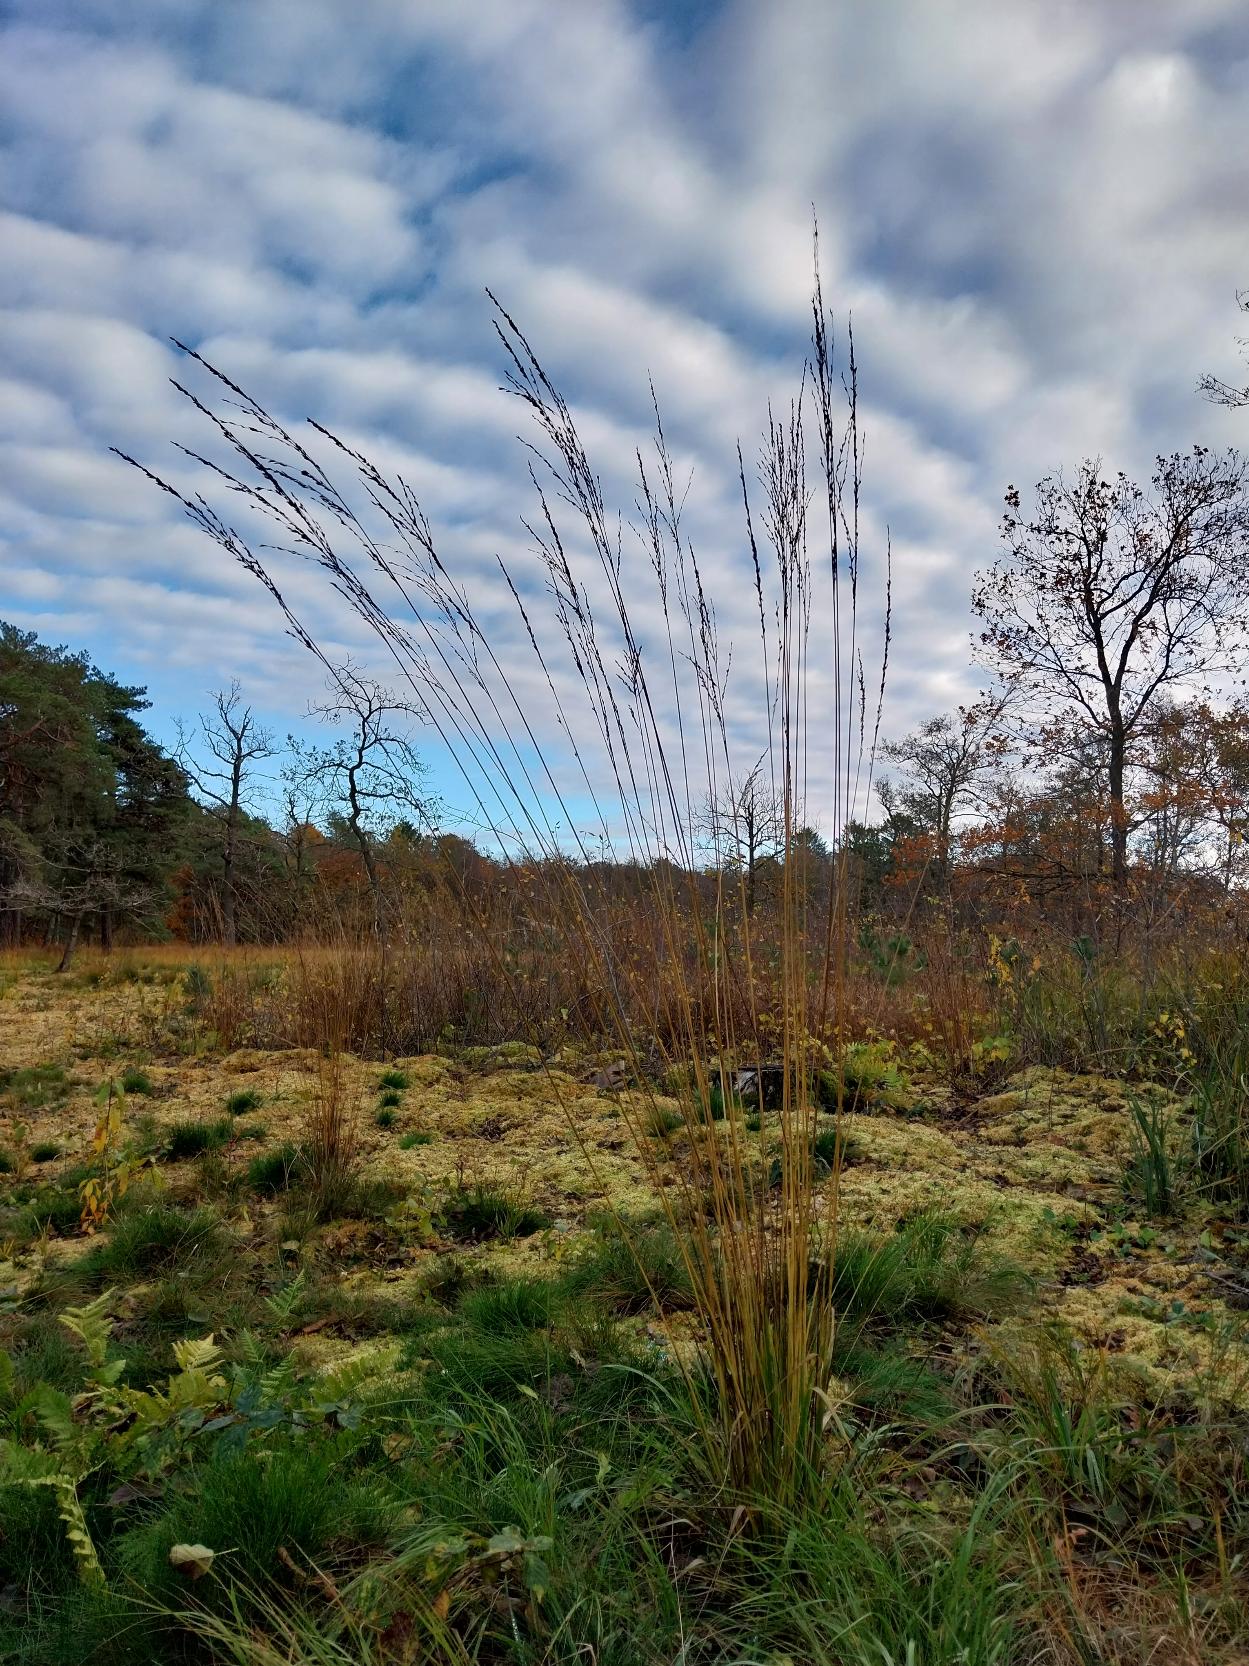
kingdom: Plantae
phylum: Tracheophyta
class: Liliopsida
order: Poales
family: Poaceae
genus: Molinia
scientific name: Molinia caerulea
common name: Blåtop
